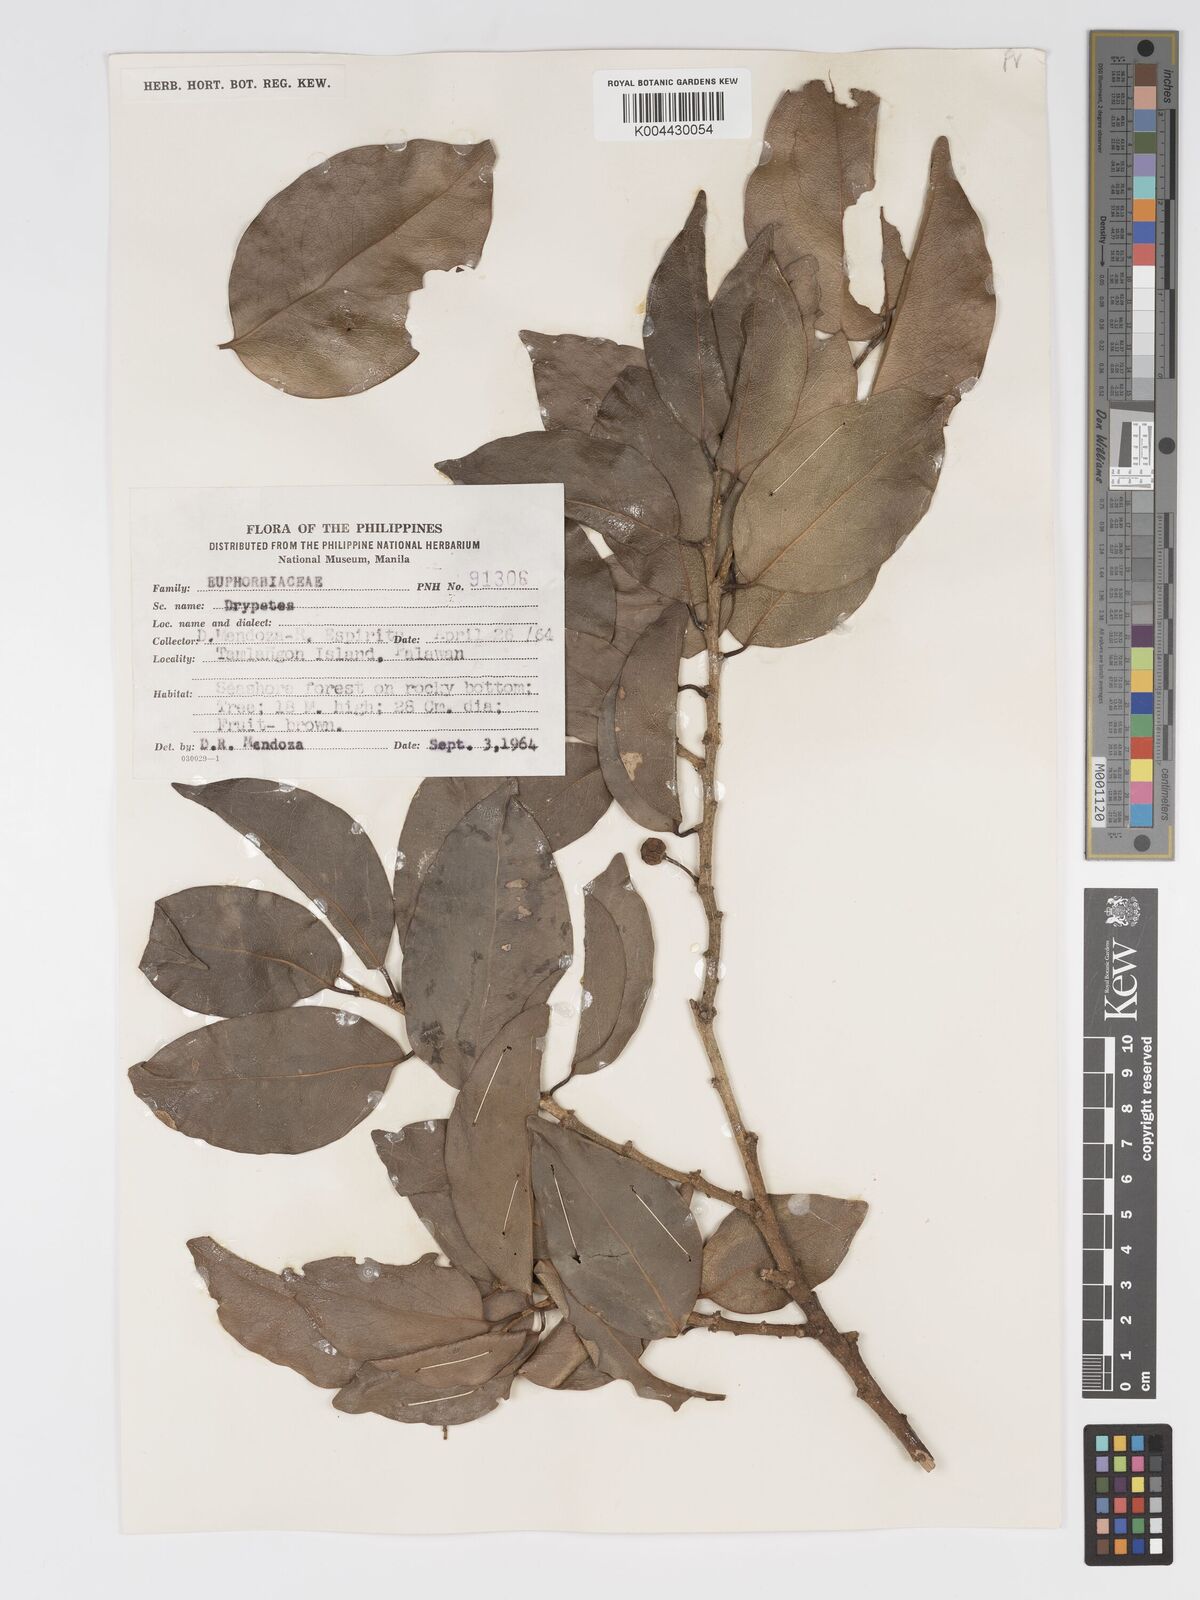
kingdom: Plantae
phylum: Tracheophyta
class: Magnoliopsida
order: Malpighiales
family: Putranjivaceae
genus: Drypetes
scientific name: Drypetes
